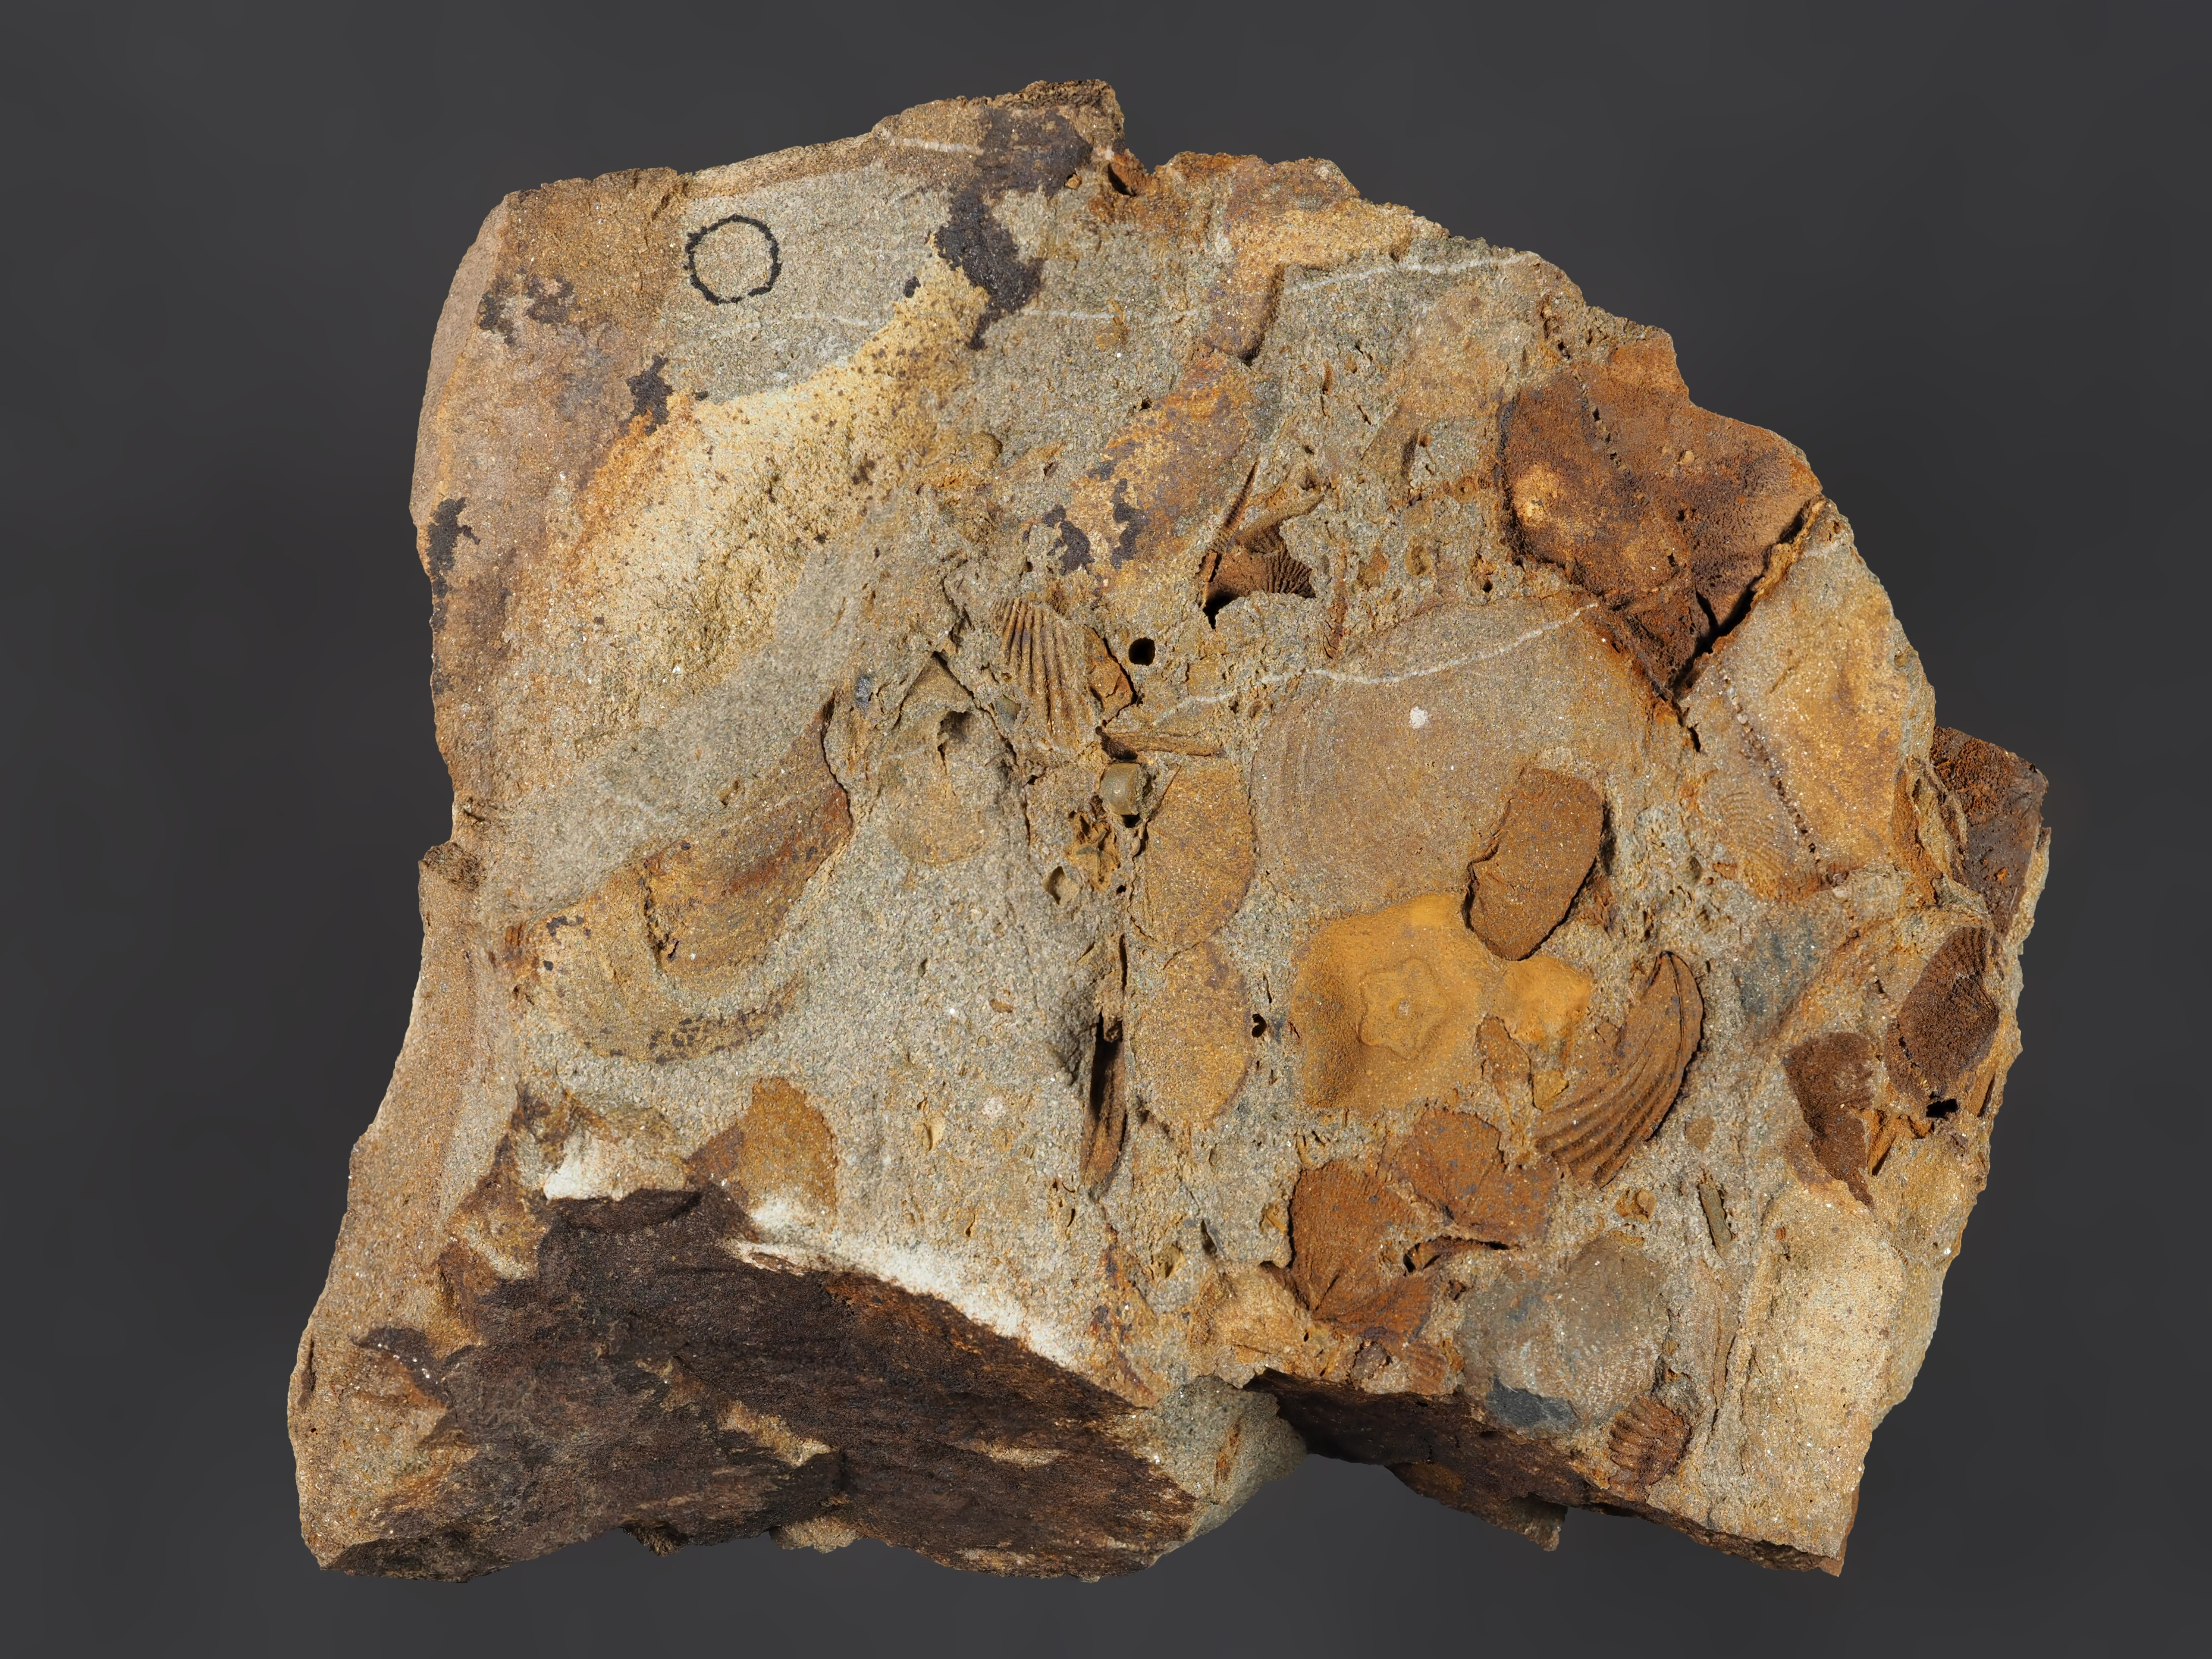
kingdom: Animalia
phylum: Echinodermata
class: Crinoidea
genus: Diamenocrinus
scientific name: Diamenocrinus
